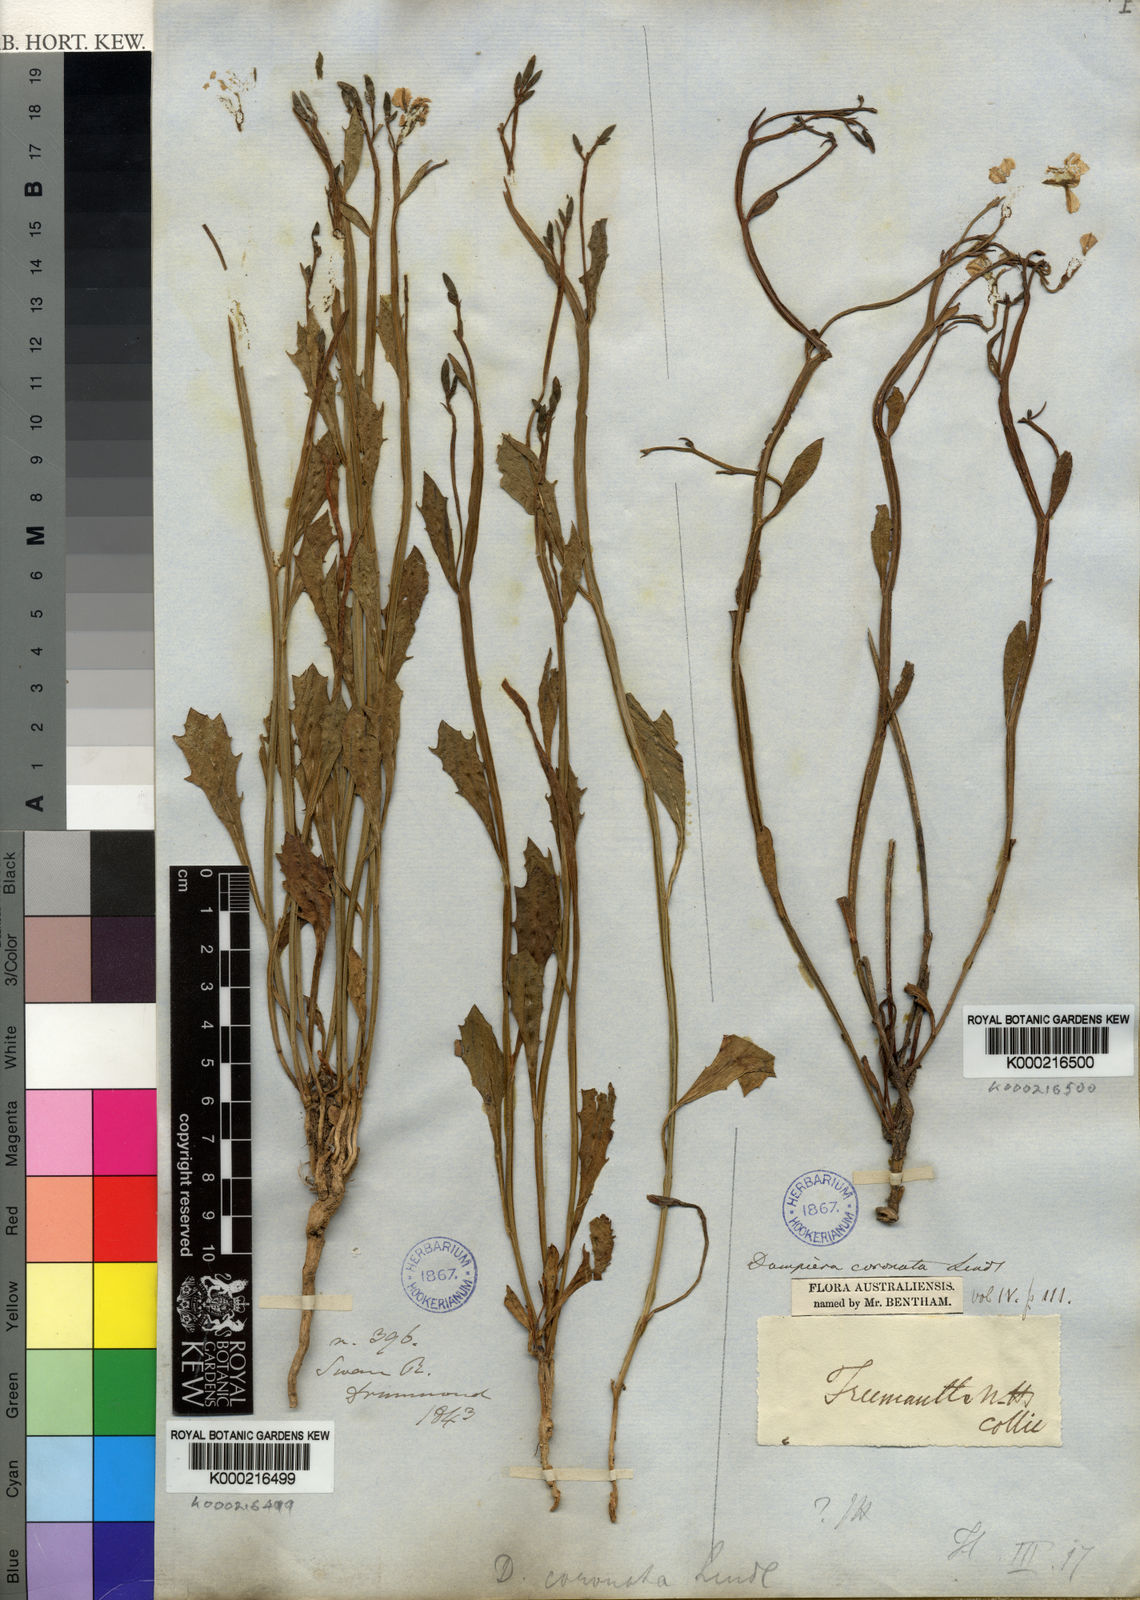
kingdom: Plantae
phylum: Tracheophyta
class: Magnoliopsida
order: Asterales
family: Goodeniaceae
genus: Dampiera
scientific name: Dampiera coronata
